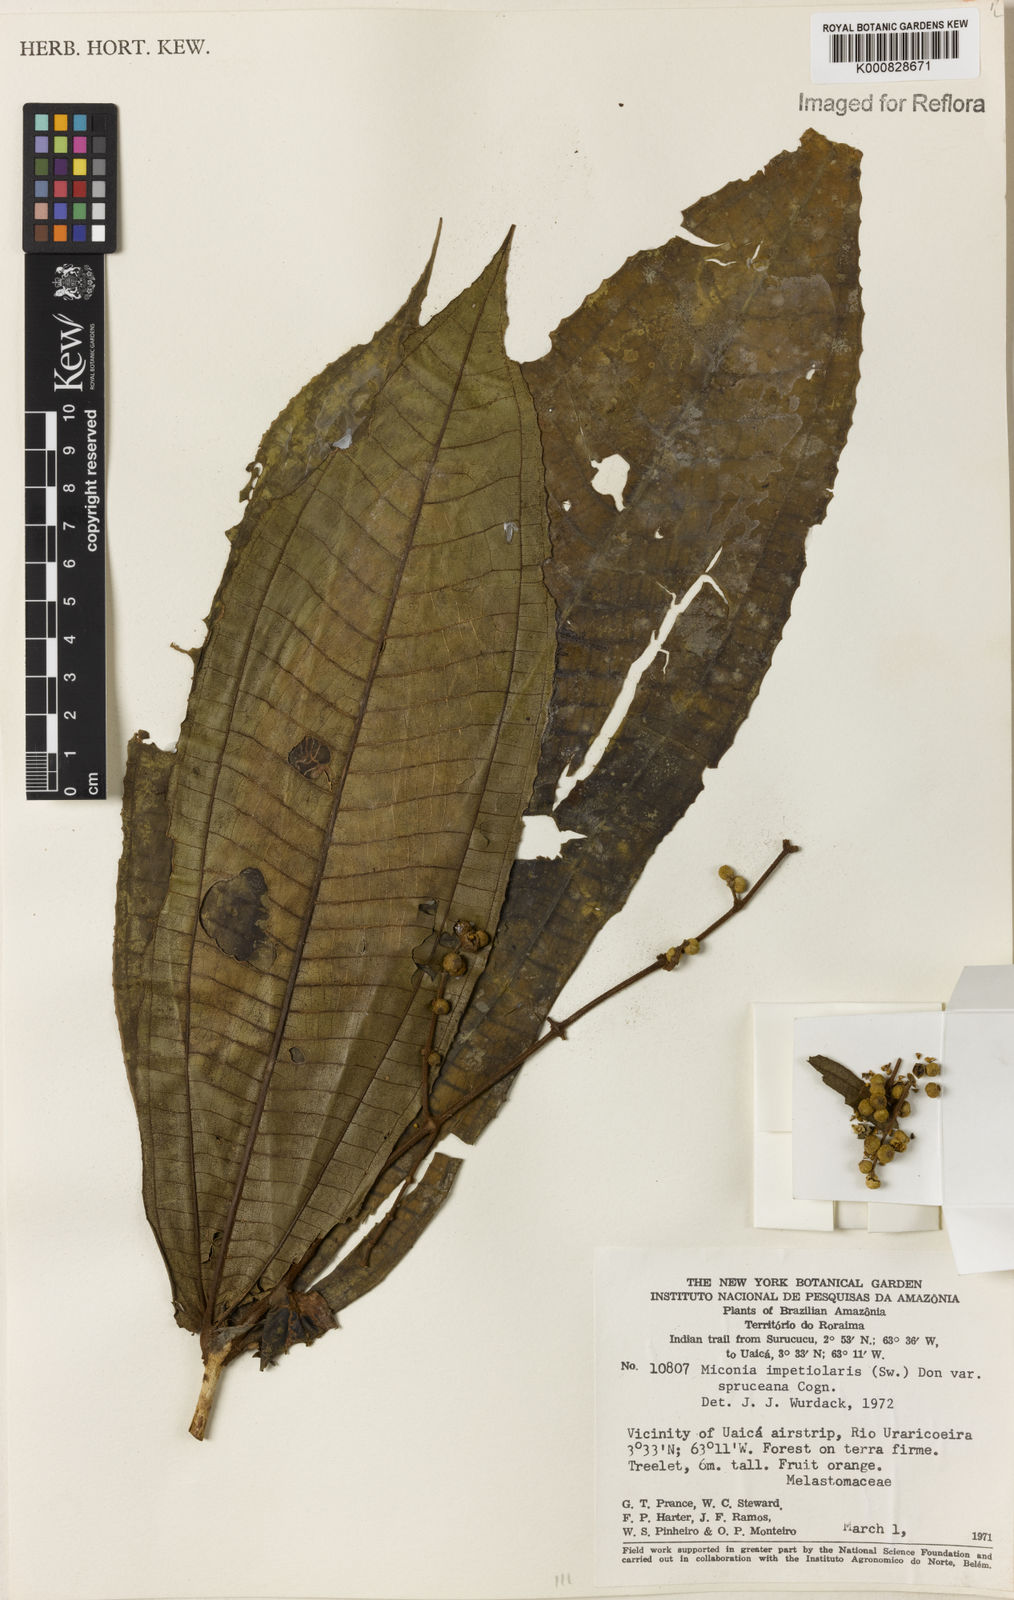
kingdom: Plantae
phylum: Tracheophyta
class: Magnoliopsida
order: Myrtales
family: Melastomataceae
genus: Miconia
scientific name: Miconia impetiolaris
